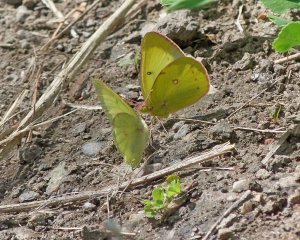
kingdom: Animalia
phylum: Arthropoda
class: Insecta
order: Lepidoptera
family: Pieridae
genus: Colias
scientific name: Colias philodice
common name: Clouded Sulphur
